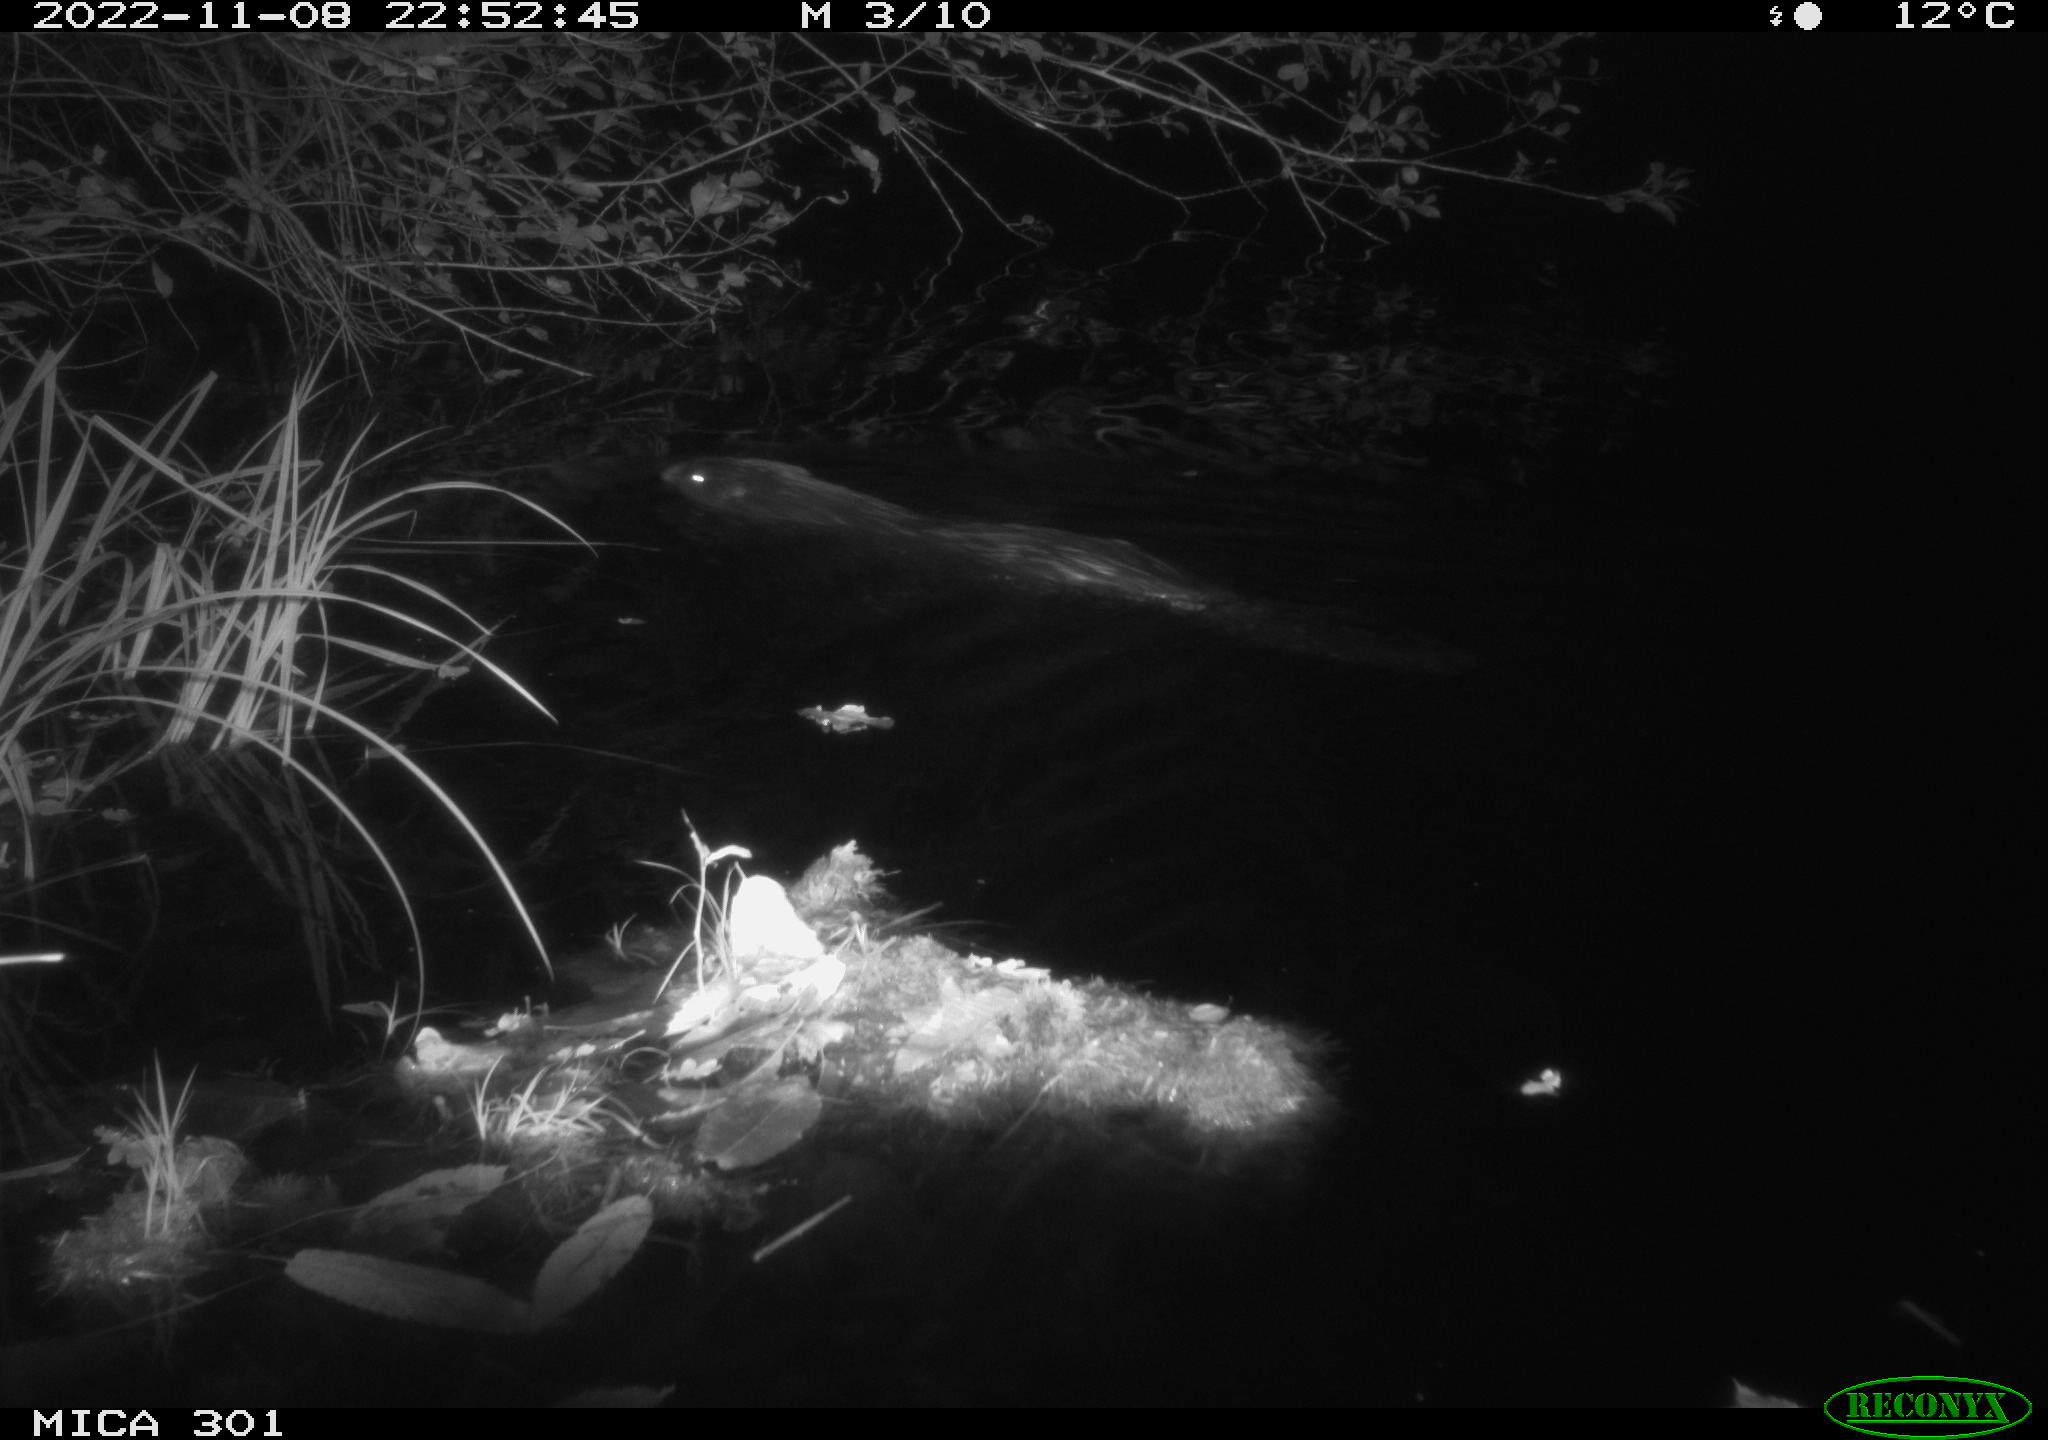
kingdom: Animalia
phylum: Chordata
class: Mammalia
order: Rodentia
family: Castoridae
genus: Castor
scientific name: Castor fiber
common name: Eurasian beaver
